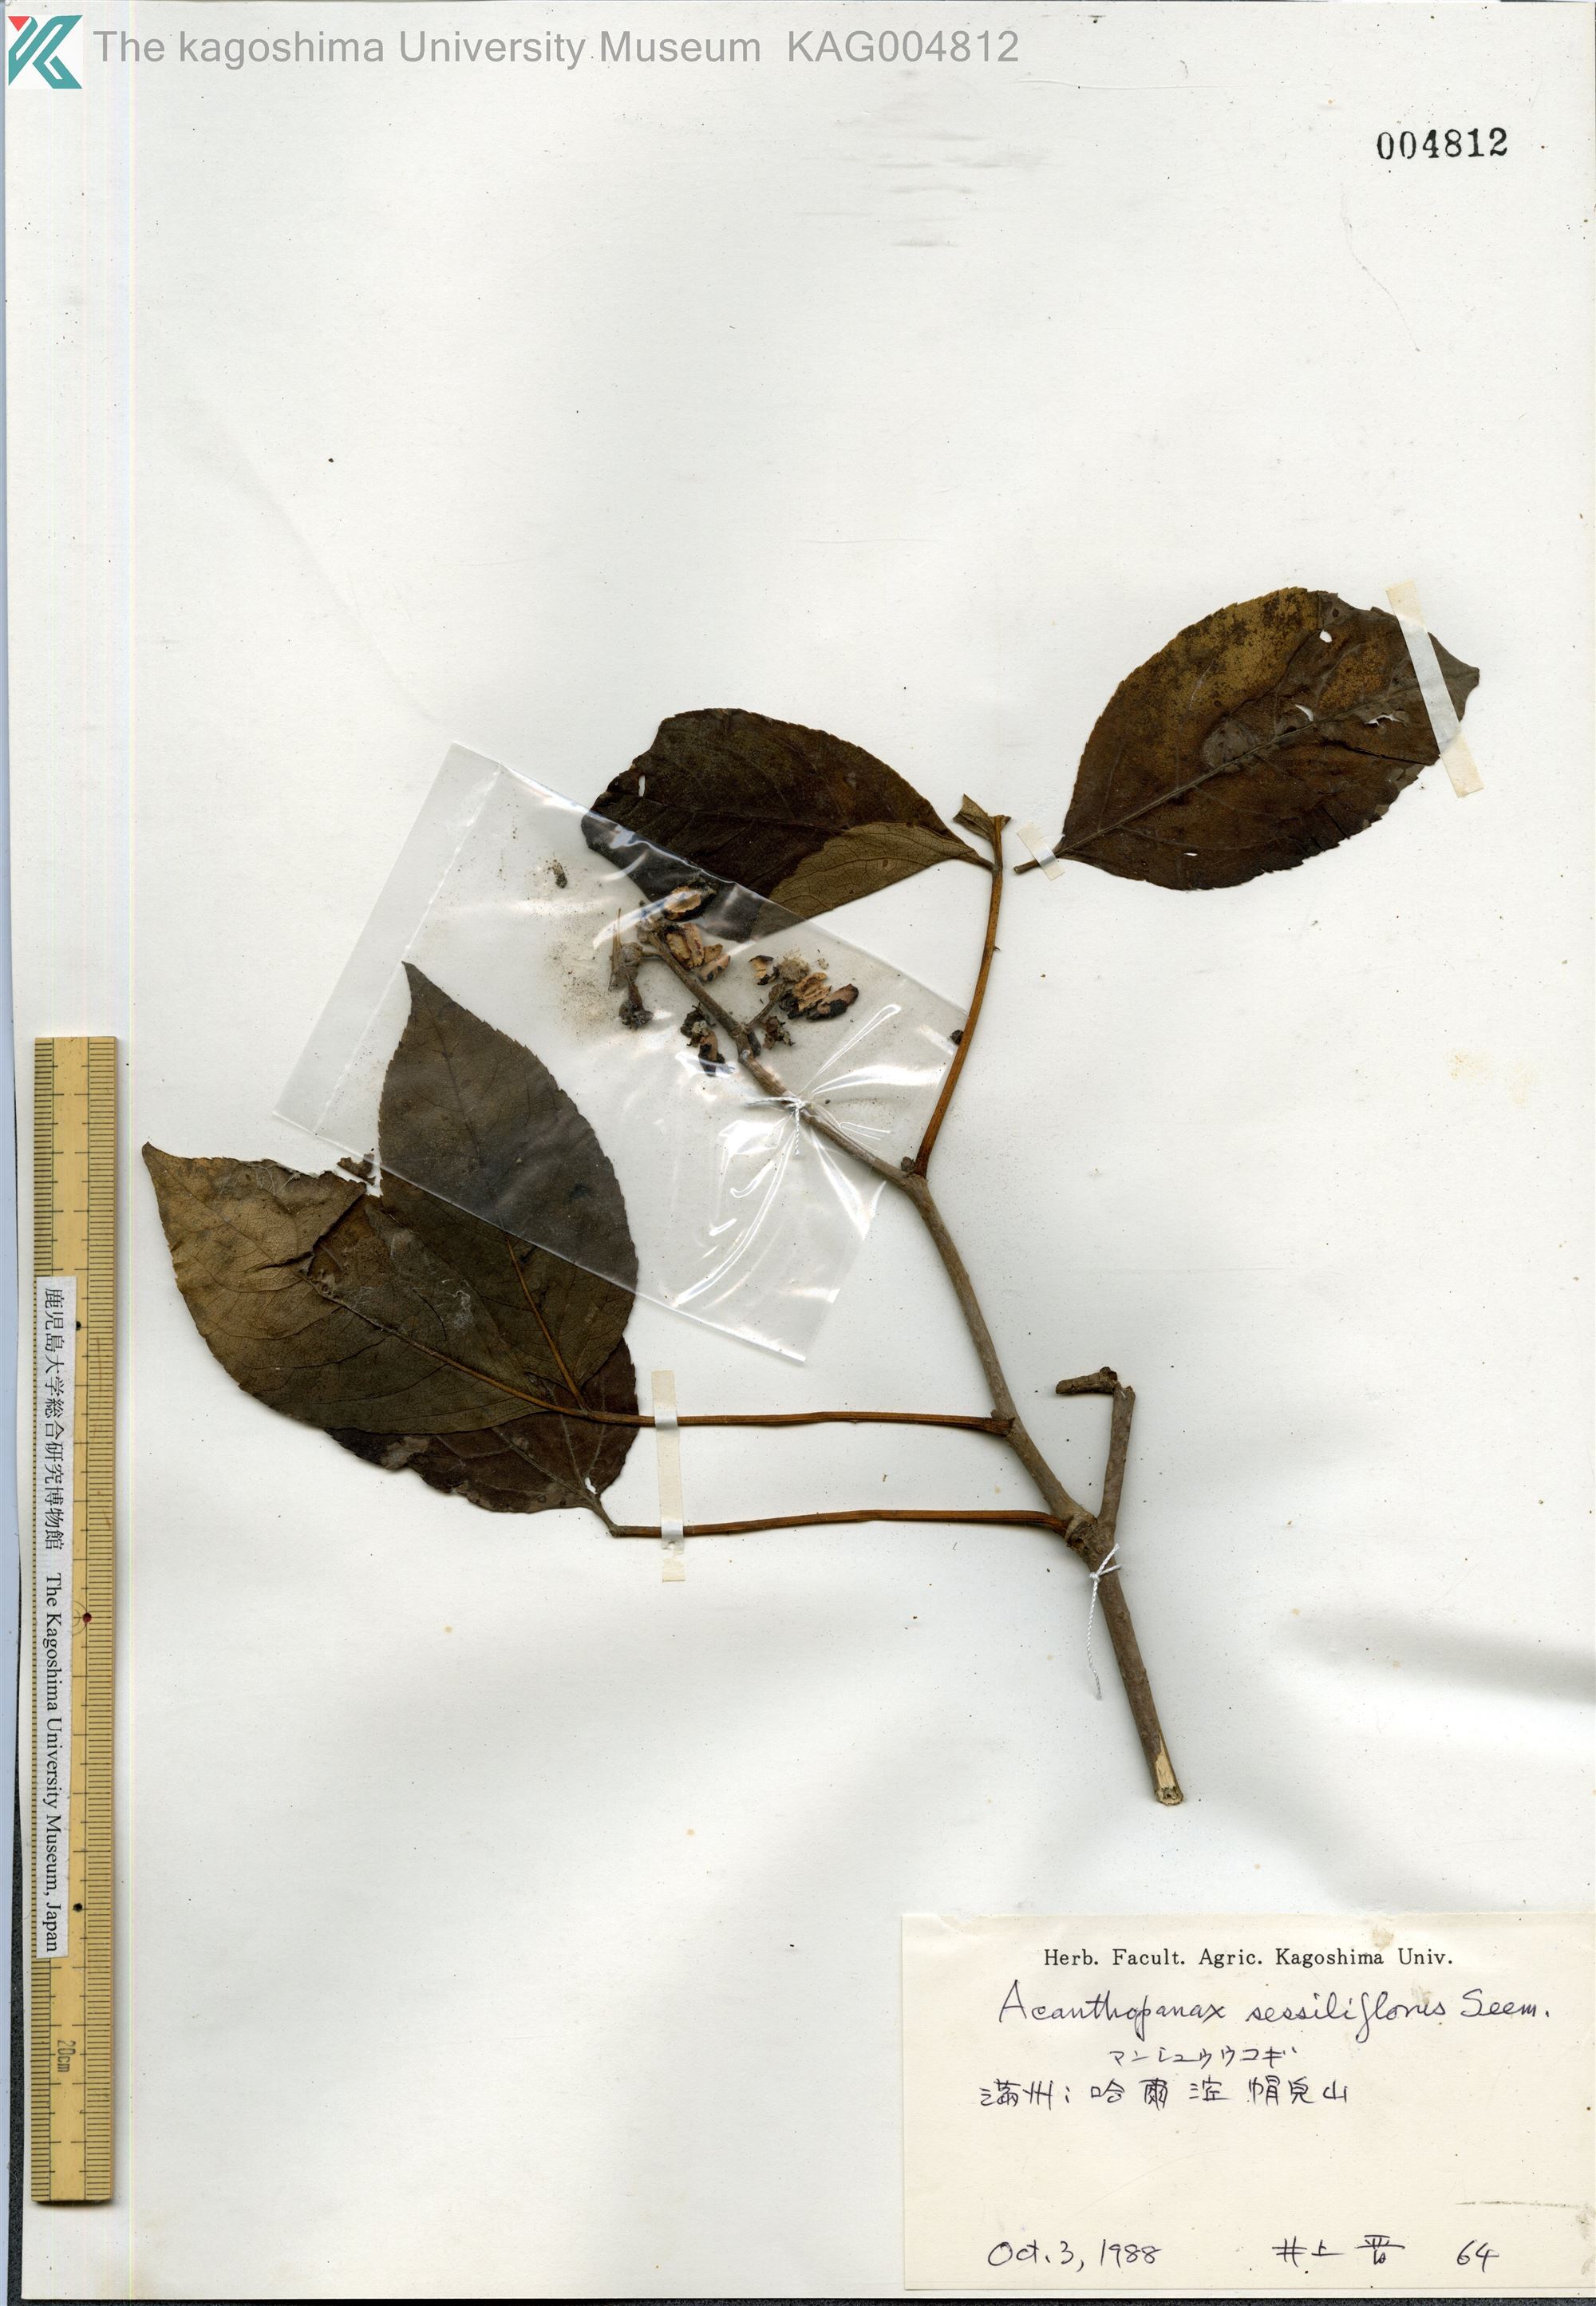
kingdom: Plantae
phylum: Tracheophyta
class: Magnoliopsida
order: Apiales
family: Araliaceae
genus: Eleutherococcus
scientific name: Eleutherococcus sessiliflorus
